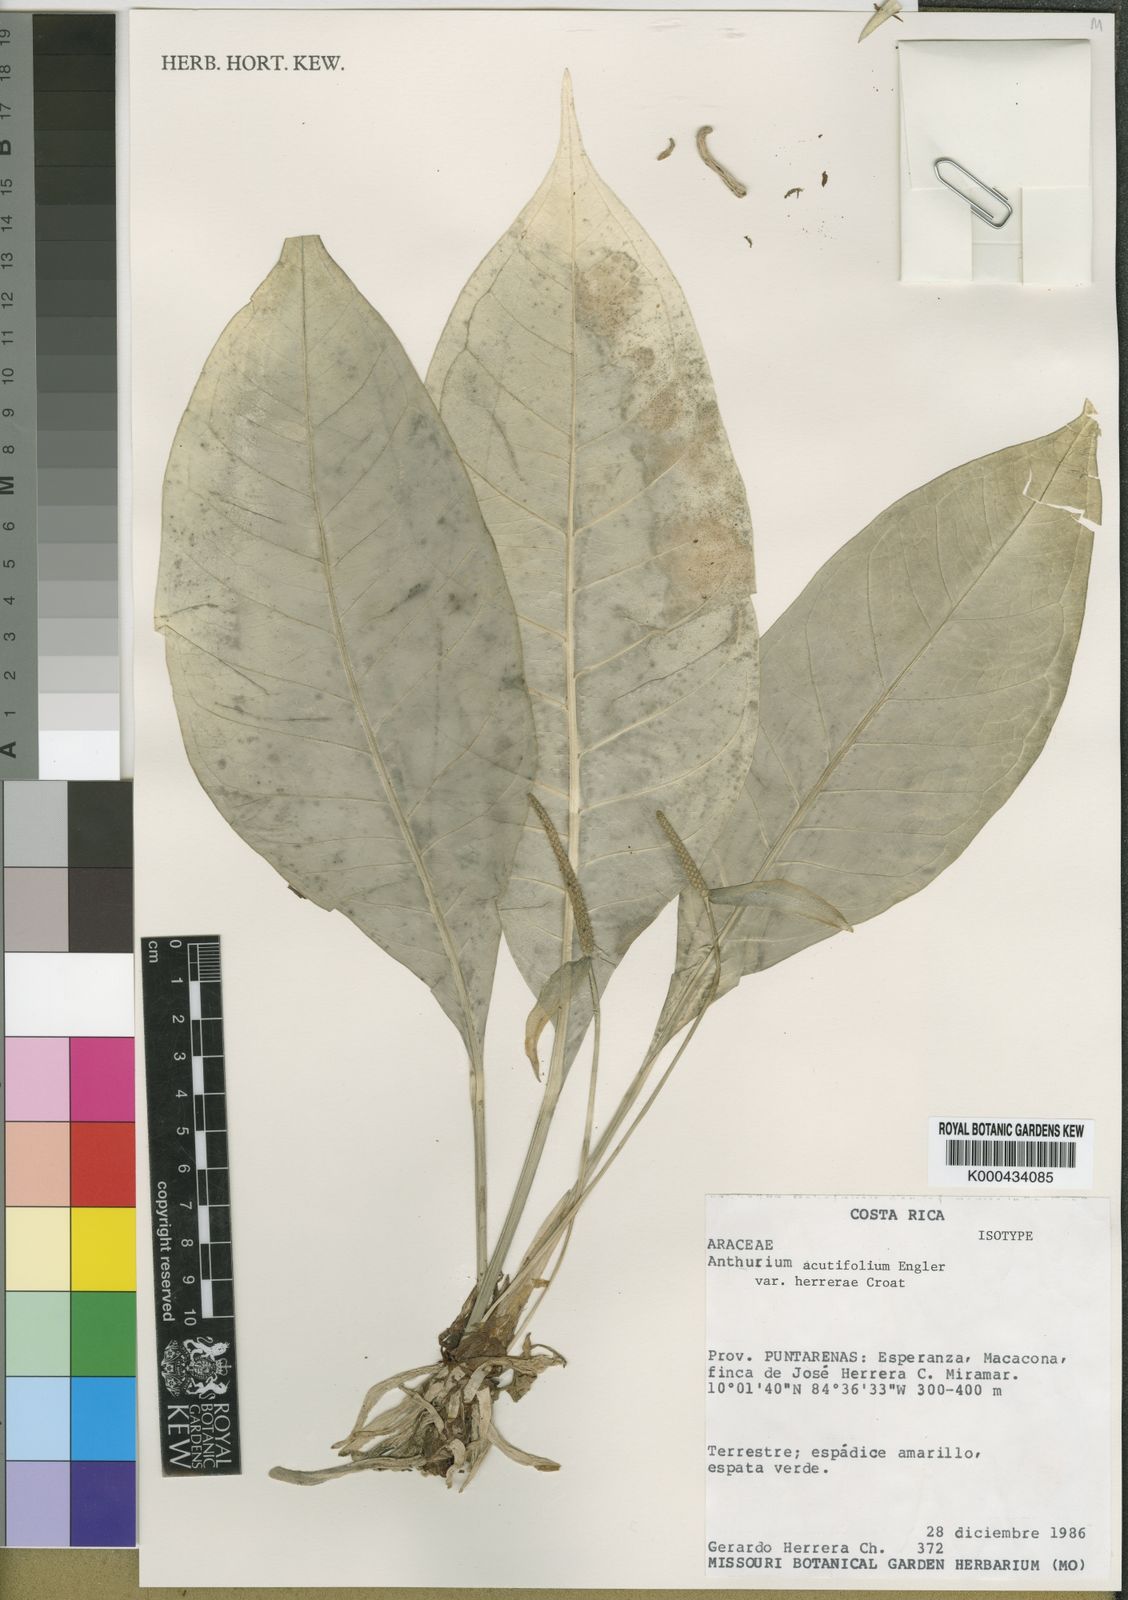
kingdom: Plantae
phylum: Tracheophyta
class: Liliopsida
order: Alismatales
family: Araceae
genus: Anthurium
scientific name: Anthurium acutifolium
